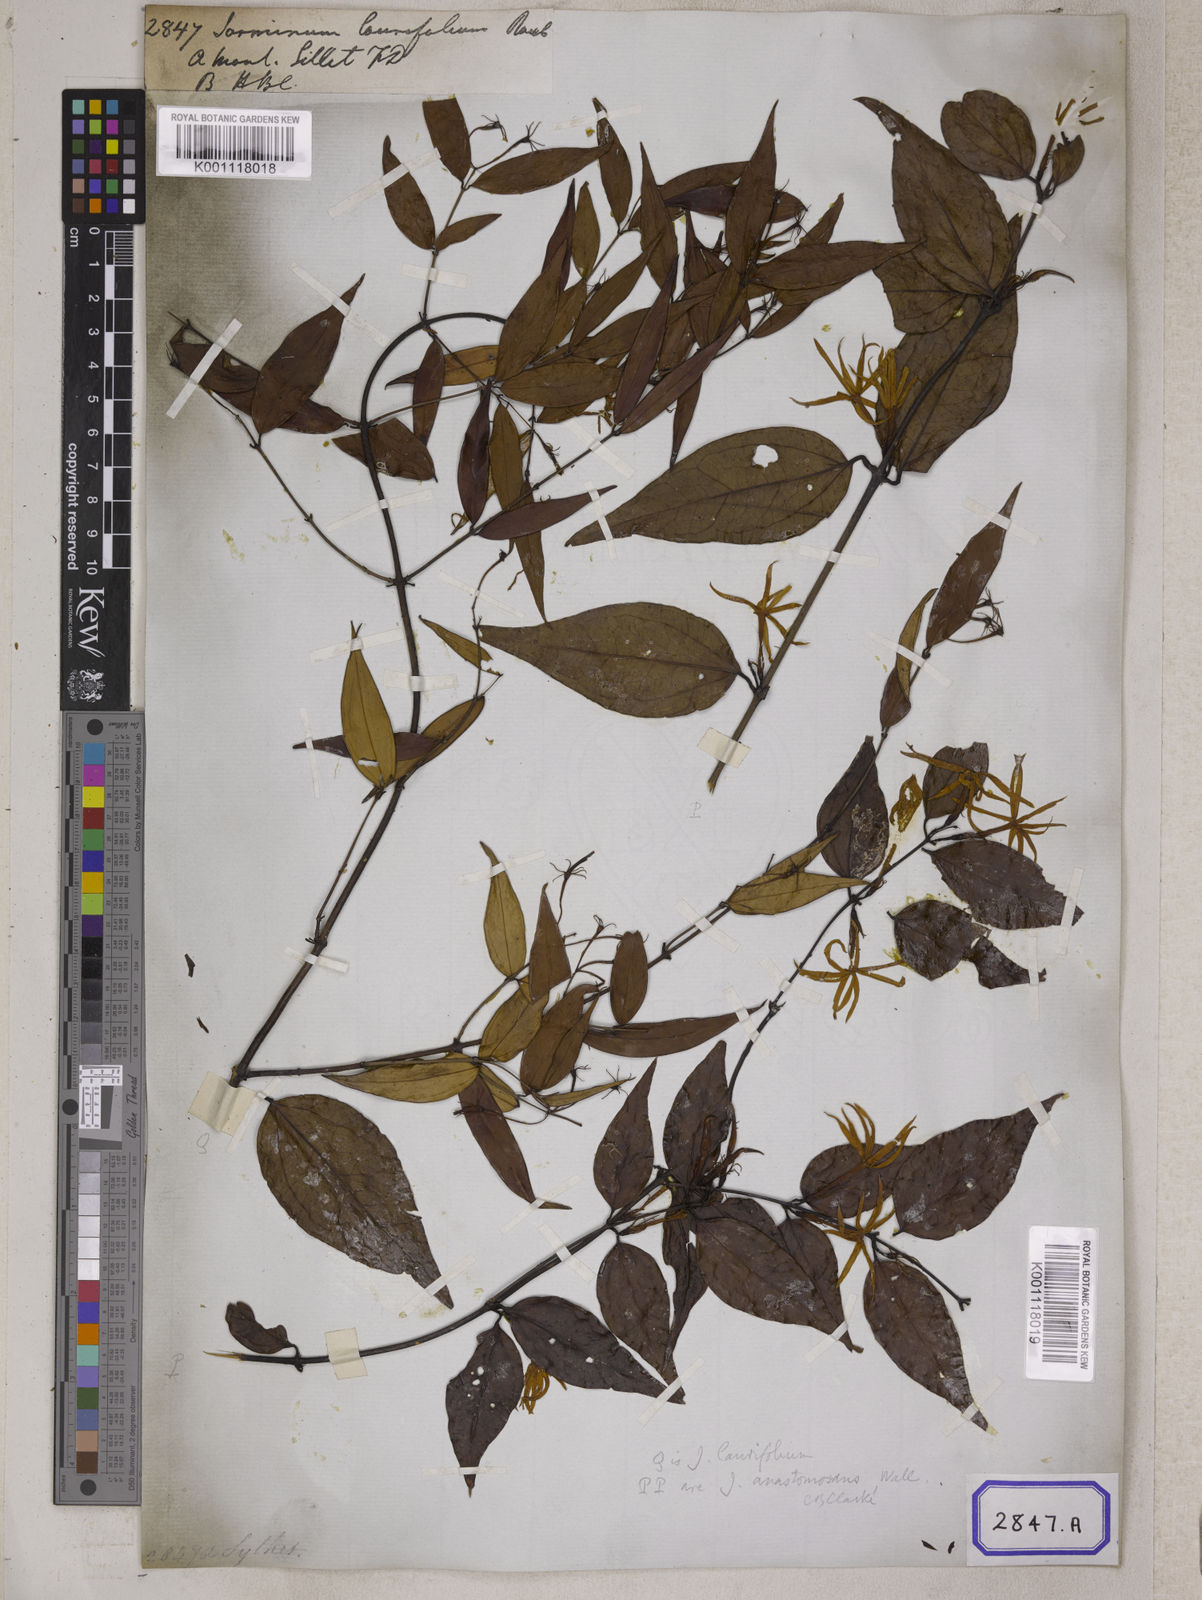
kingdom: Plantae
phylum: Tracheophyta
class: Magnoliopsida
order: Lamiales
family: Oleaceae
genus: Jasminum
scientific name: Jasminum
